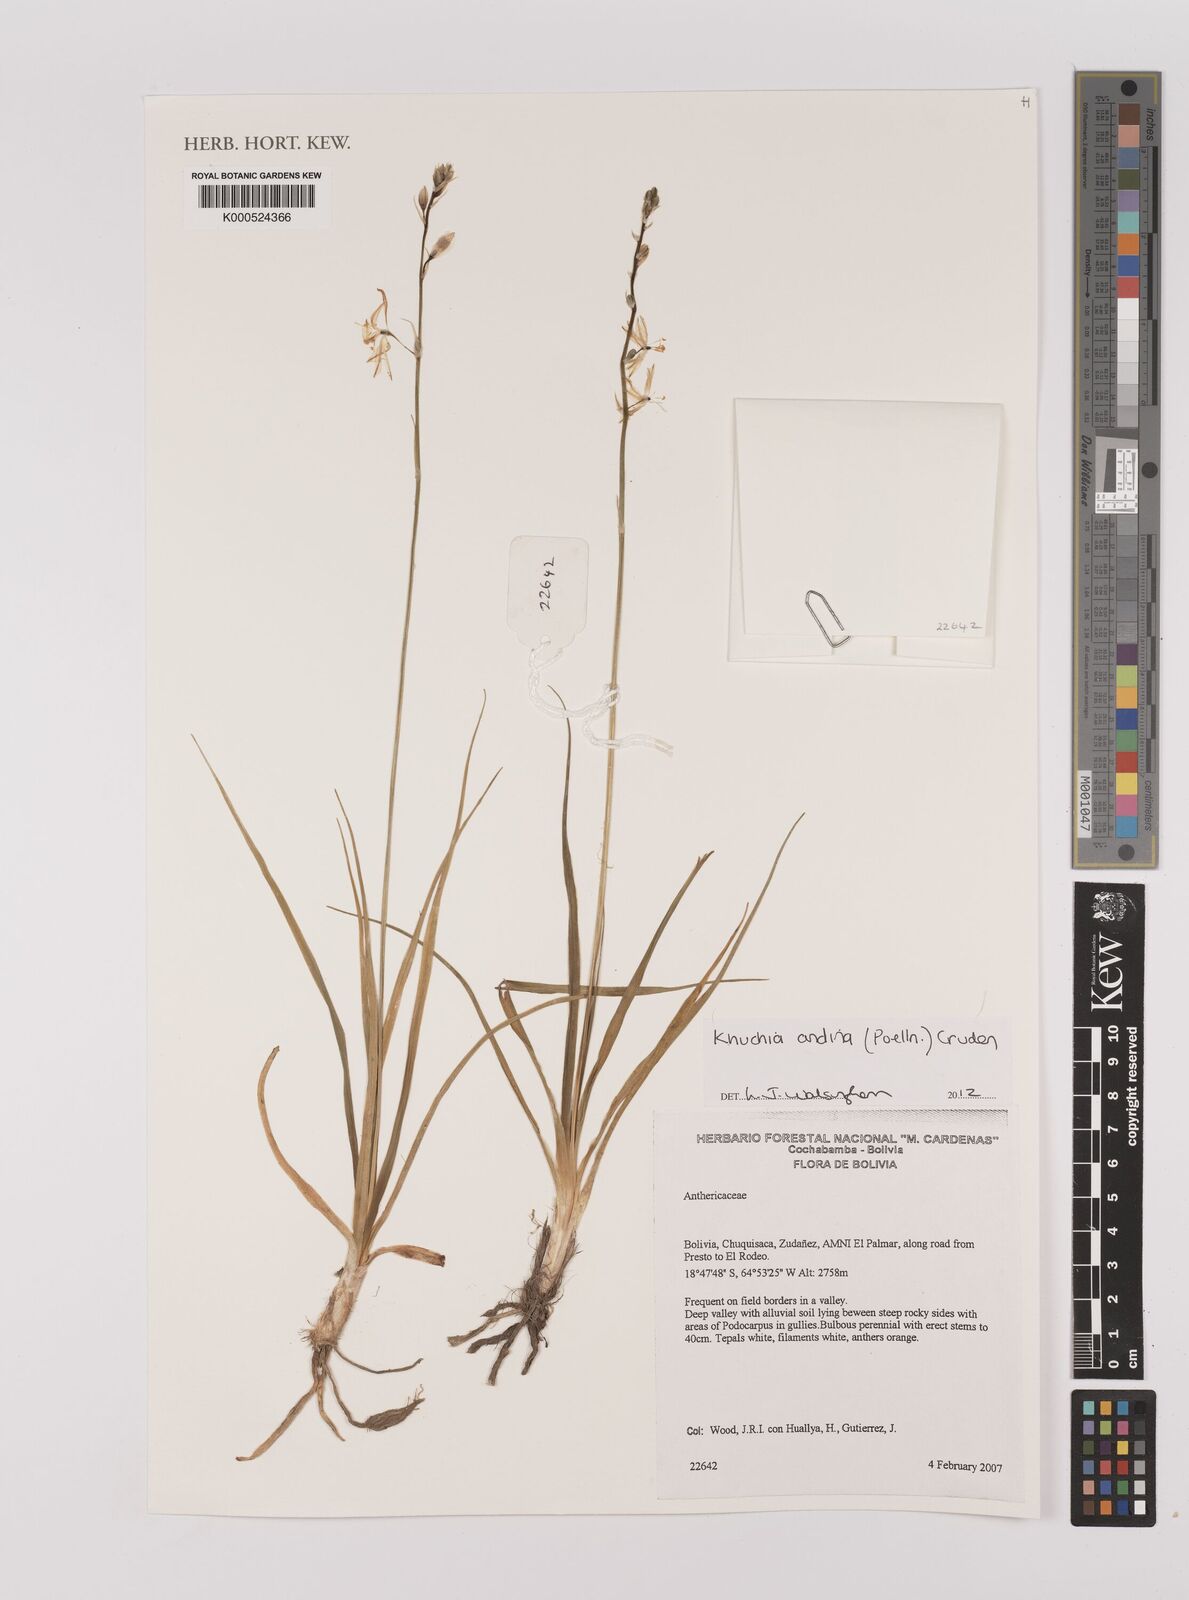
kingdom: Plantae
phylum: Tracheophyta
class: Liliopsida
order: Asparagales
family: Asparagaceae
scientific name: Asparagaceae
